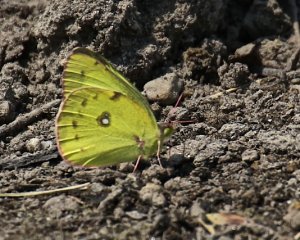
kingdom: Animalia
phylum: Arthropoda
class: Insecta
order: Lepidoptera
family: Pieridae
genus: Colias
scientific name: Colias eurytheme
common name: Orange Sulphur
